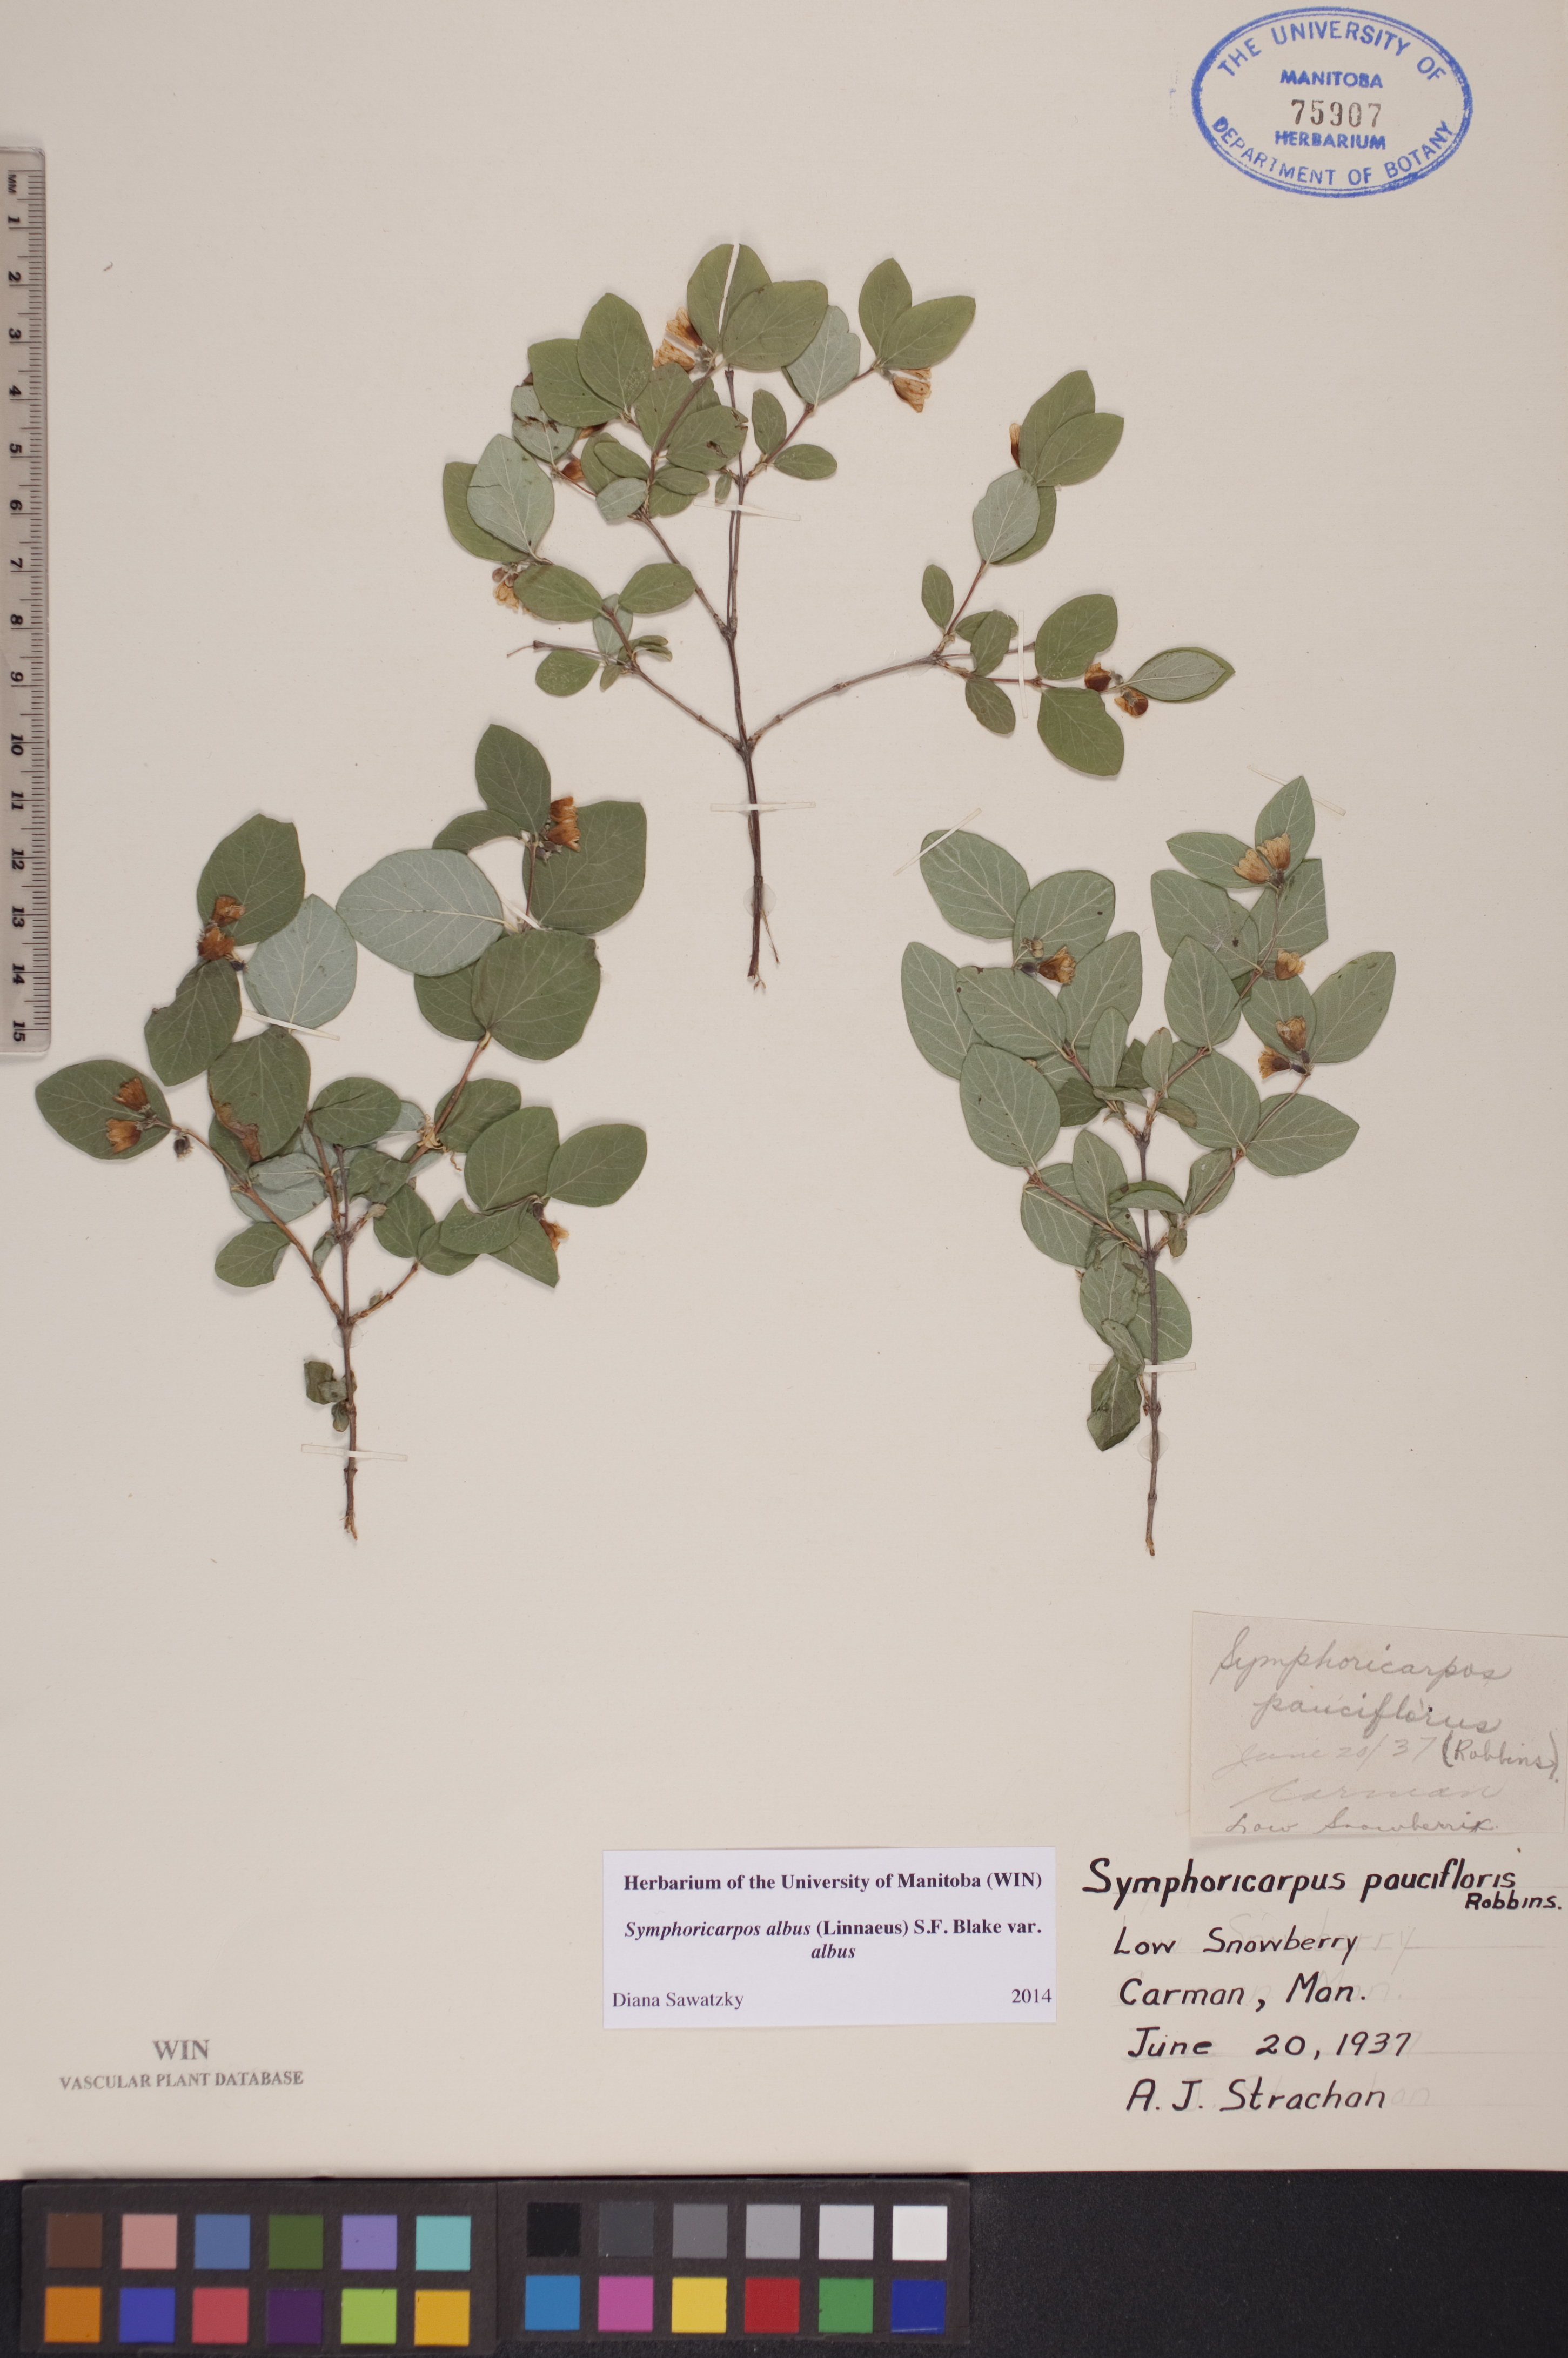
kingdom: Plantae
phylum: Tracheophyta
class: Magnoliopsida
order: Dipsacales
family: Caprifoliaceae
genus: Symphoricarpos
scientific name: Symphoricarpos albus
